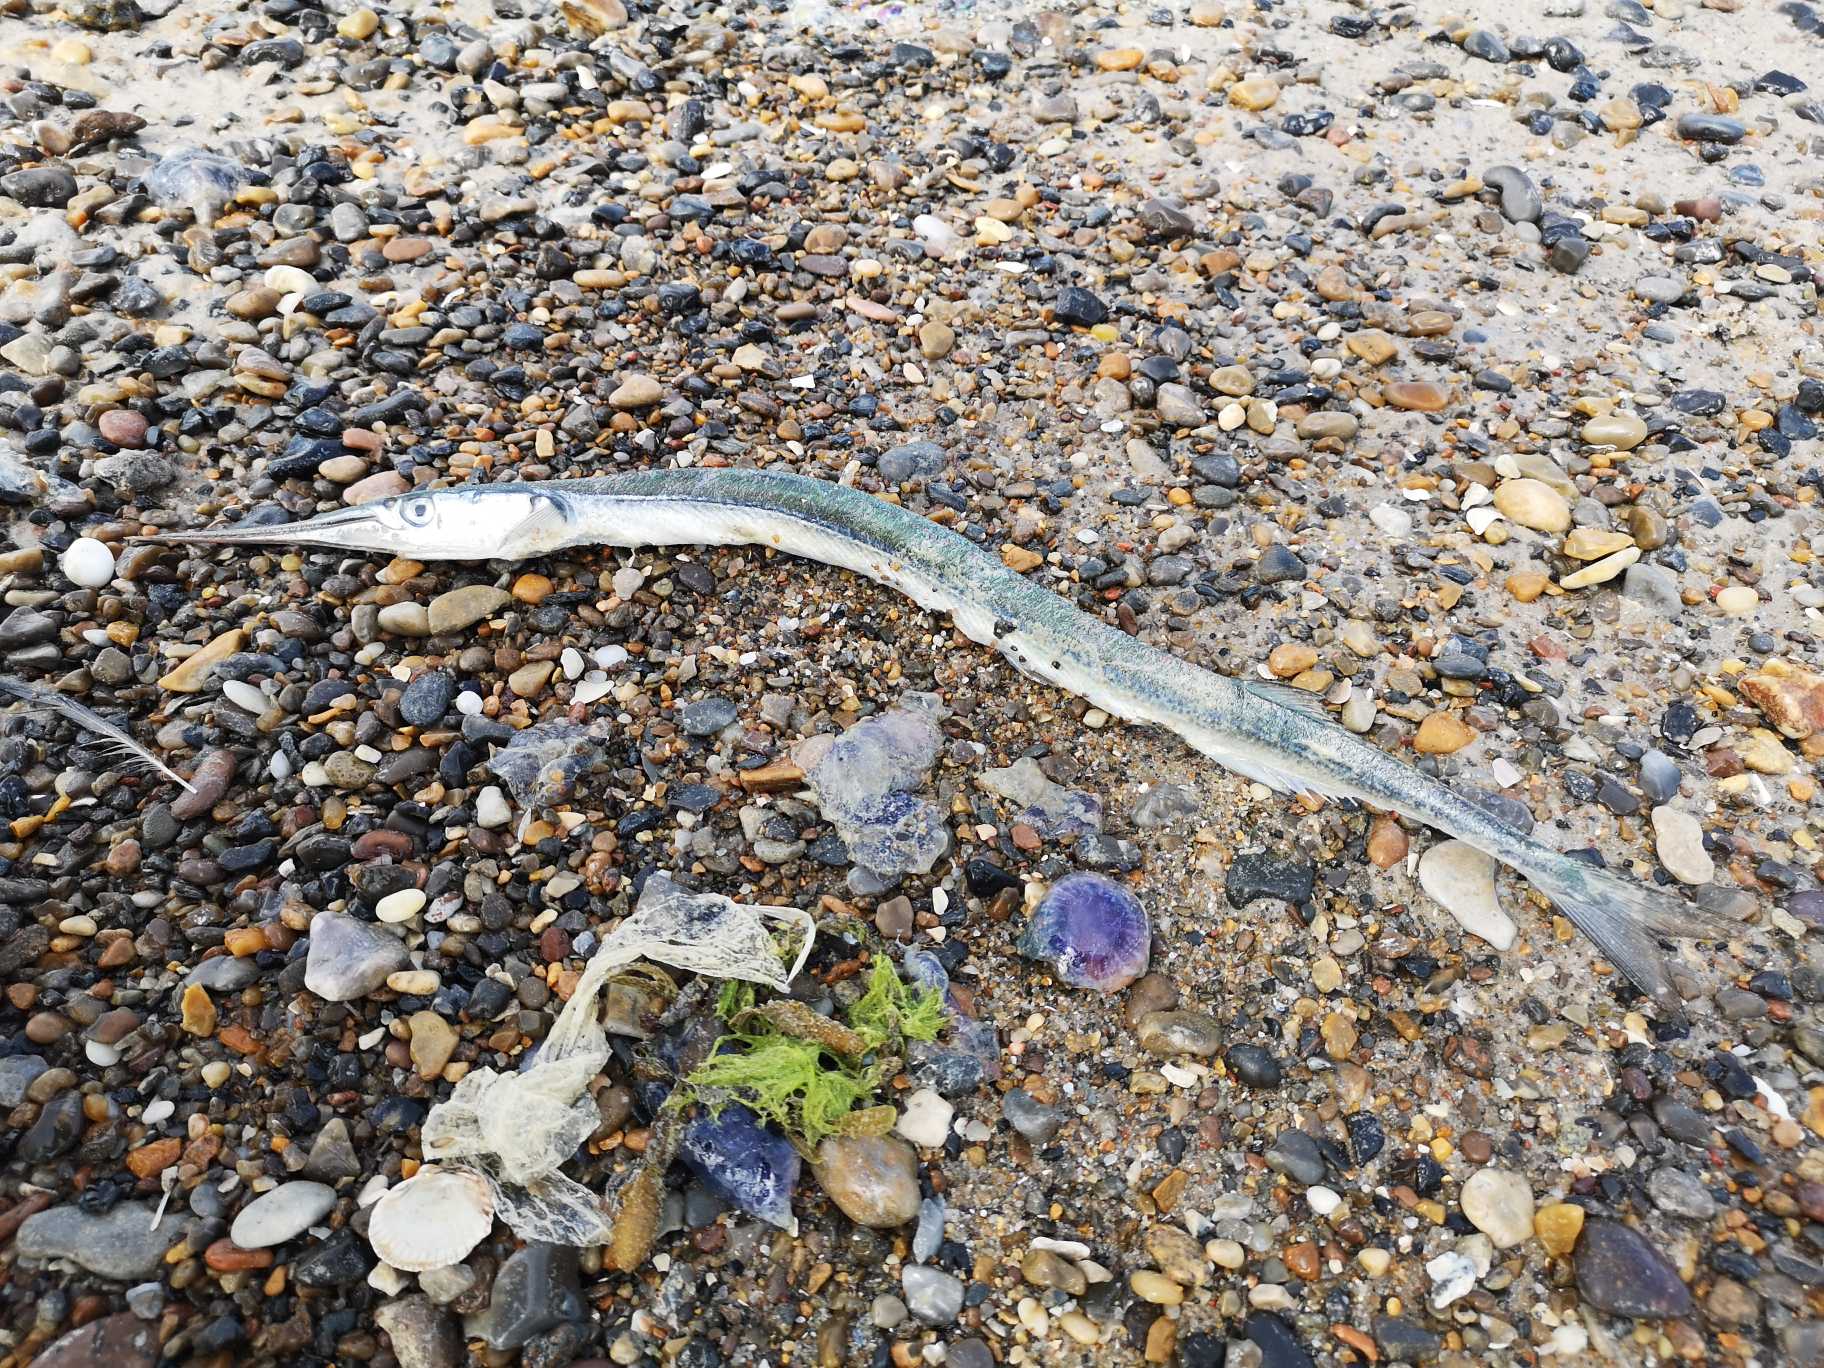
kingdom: Animalia
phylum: Chordata
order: Beloniformes
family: Belonidae
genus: Belone
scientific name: Belone belone
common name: Hornfisk
